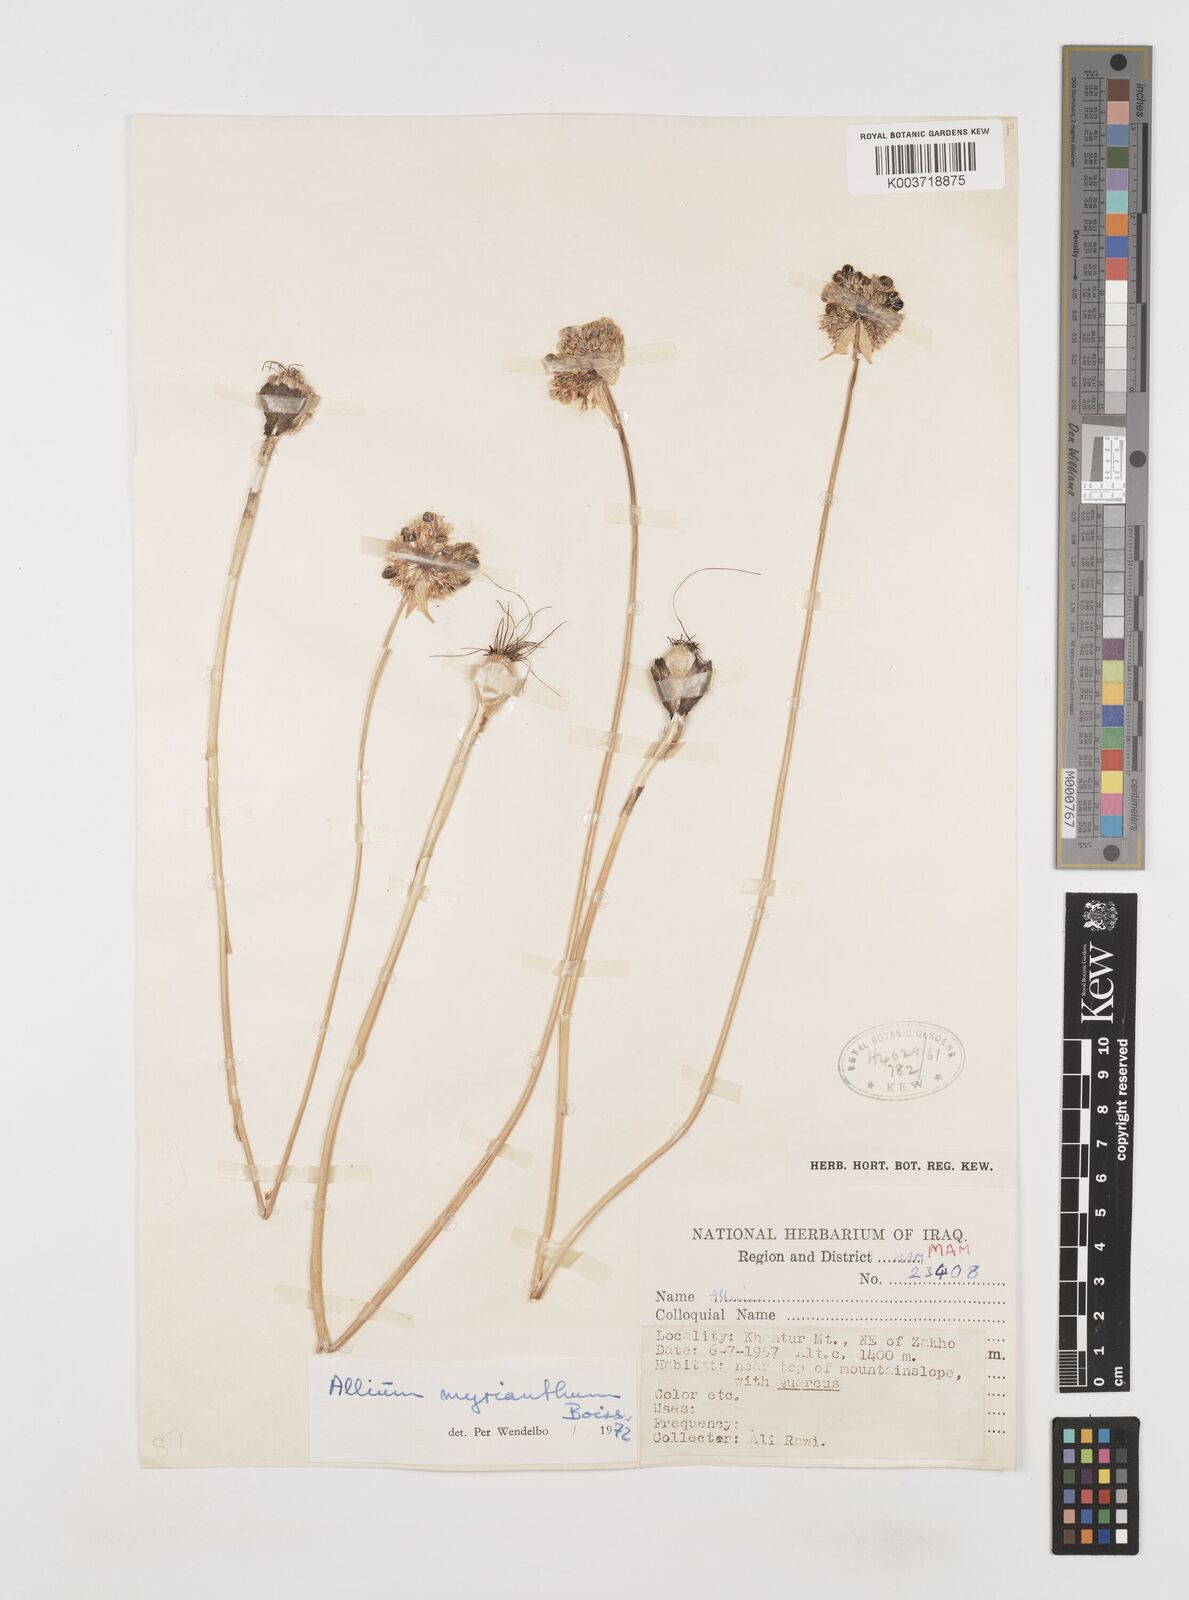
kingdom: Plantae
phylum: Tracheophyta
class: Liliopsida
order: Asparagales
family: Amaryllidaceae
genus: Allium
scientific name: Allium myrianthum
